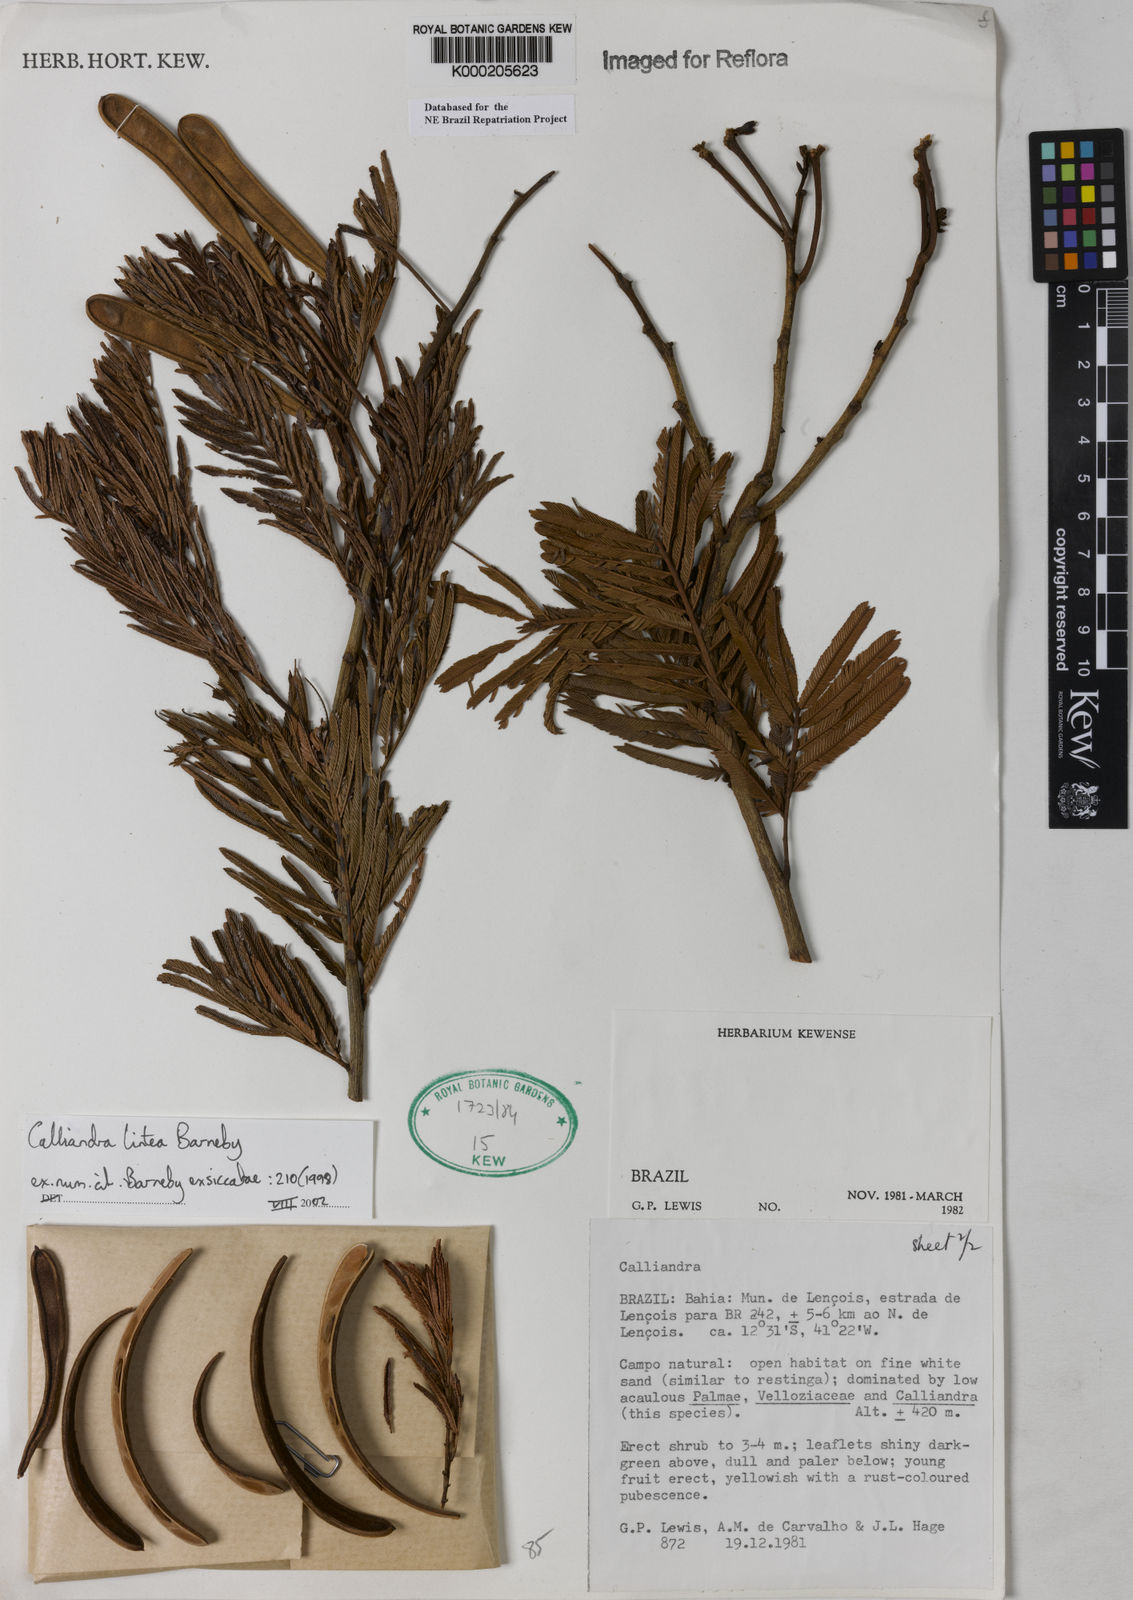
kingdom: Plantae
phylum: Tracheophyta
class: Magnoliopsida
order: Fabales
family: Fabaceae
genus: Calliandra
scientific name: Calliandra lintea
